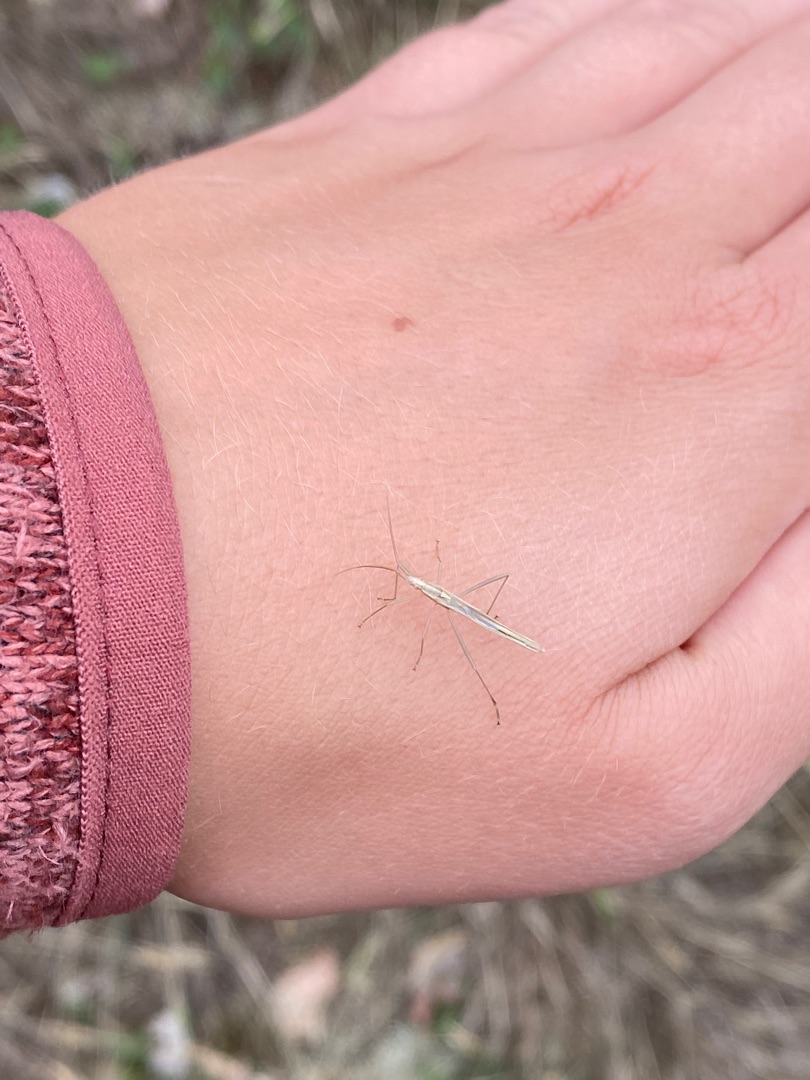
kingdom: Animalia
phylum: Arthropoda
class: Insecta
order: Hemiptera
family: Rhopalidae
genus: Chorosoma
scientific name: Chorosoma schillingii
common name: Lang stråtæge
